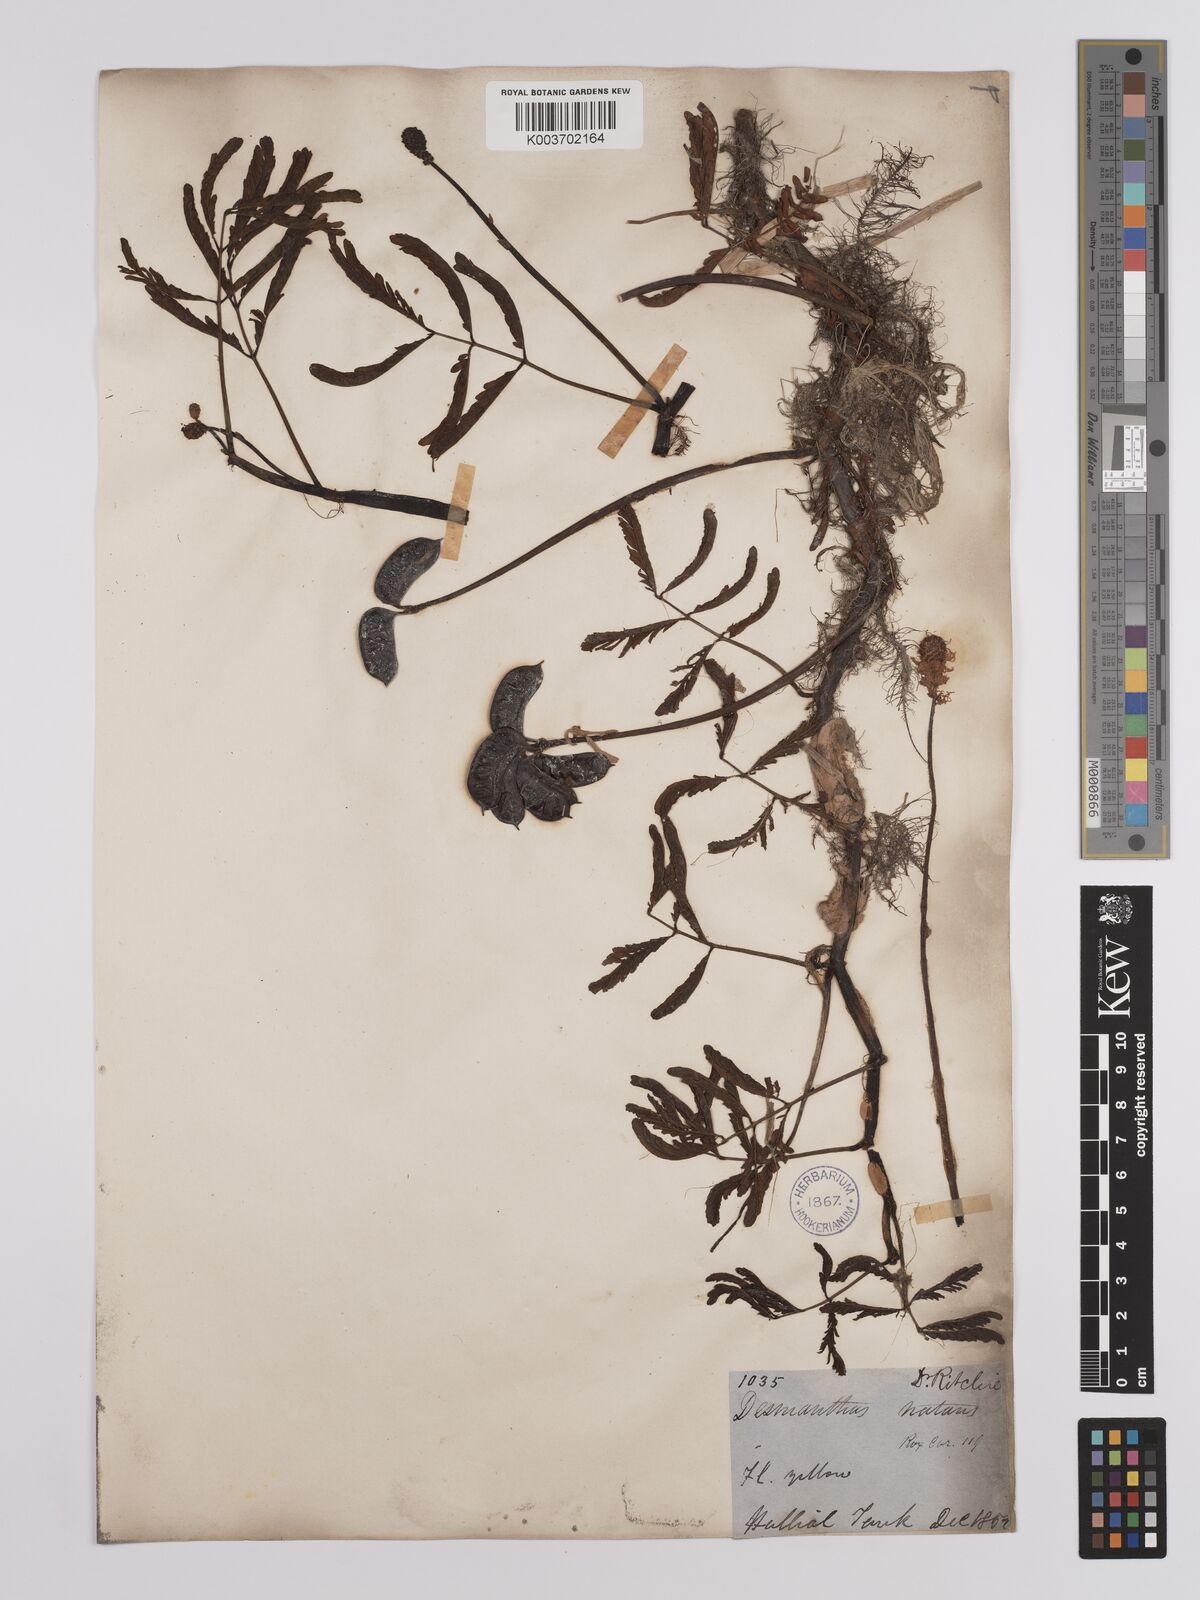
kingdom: Plantae
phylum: Tracheophyta
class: Magnoliopsida
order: Fabales
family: Fabaceae
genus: Neptunia
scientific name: Neptunia prostrata
